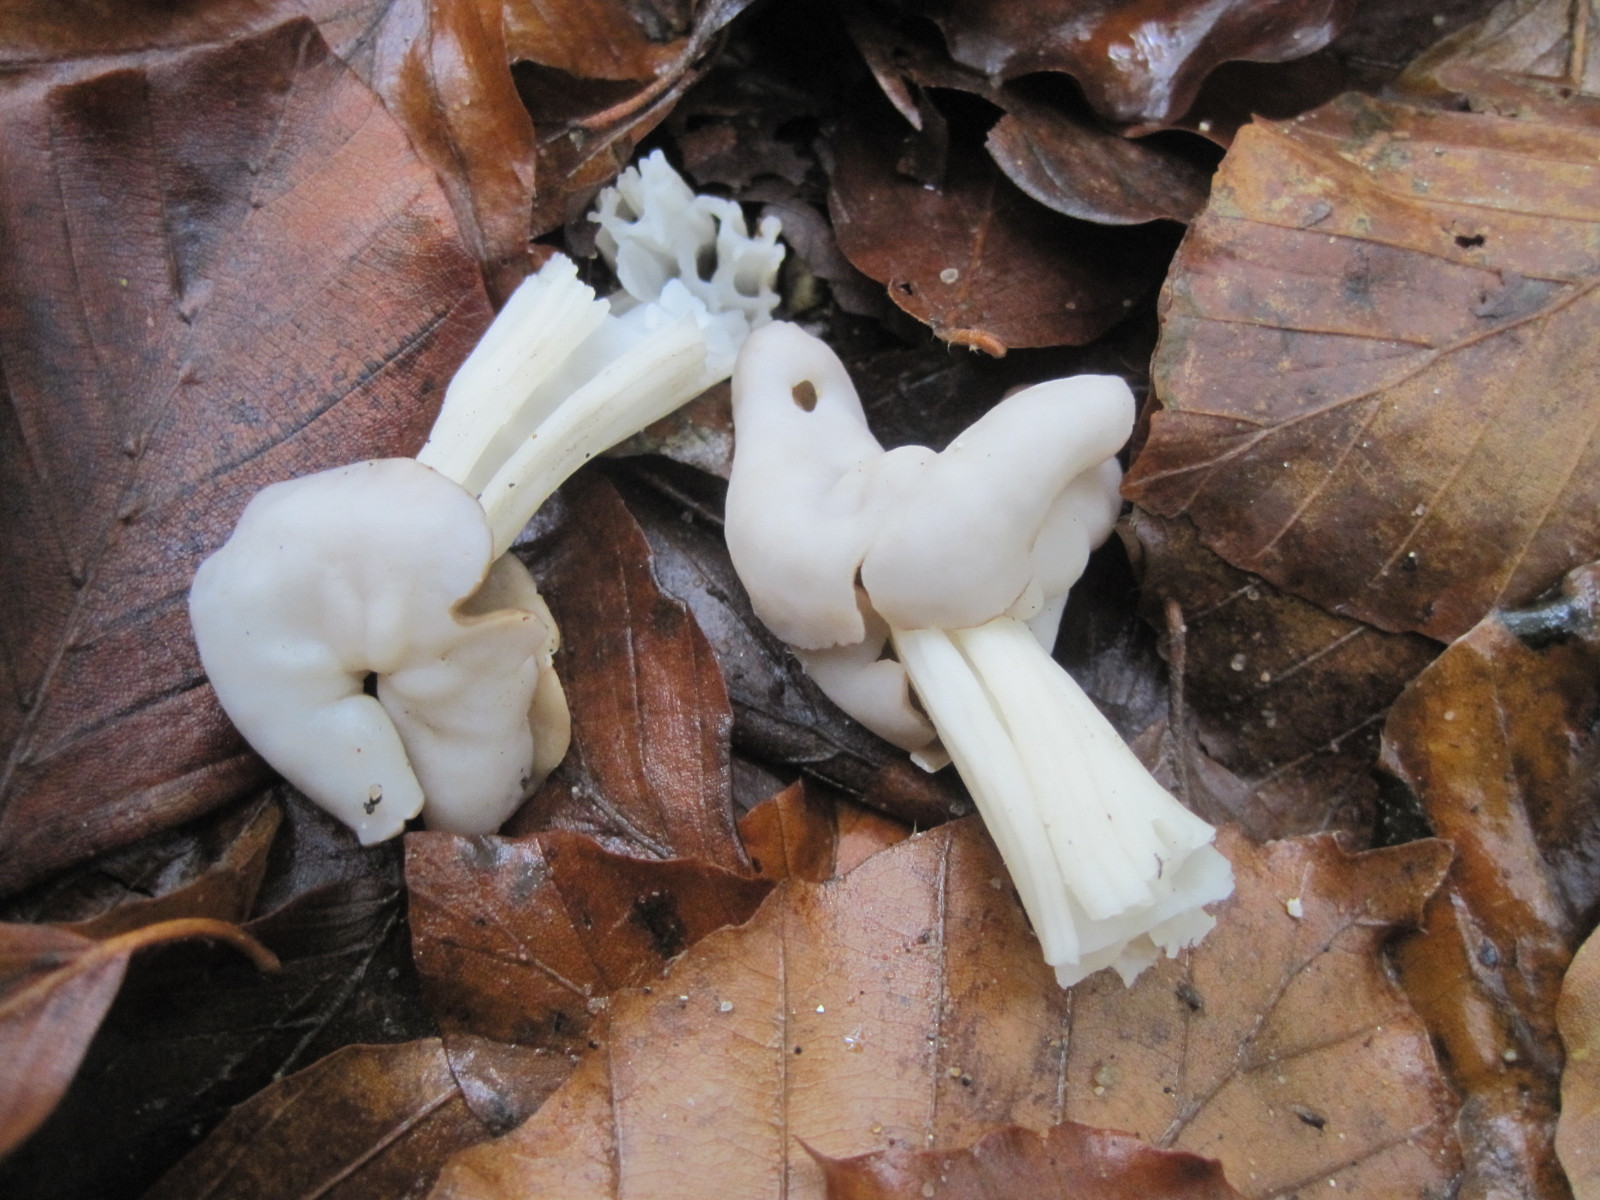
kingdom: Fungi
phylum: Ascomycota
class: Pezizomycetes
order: Pezizales
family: Helvellaceae
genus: Helvella
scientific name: Helvella crispa
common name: kruset foldhat
